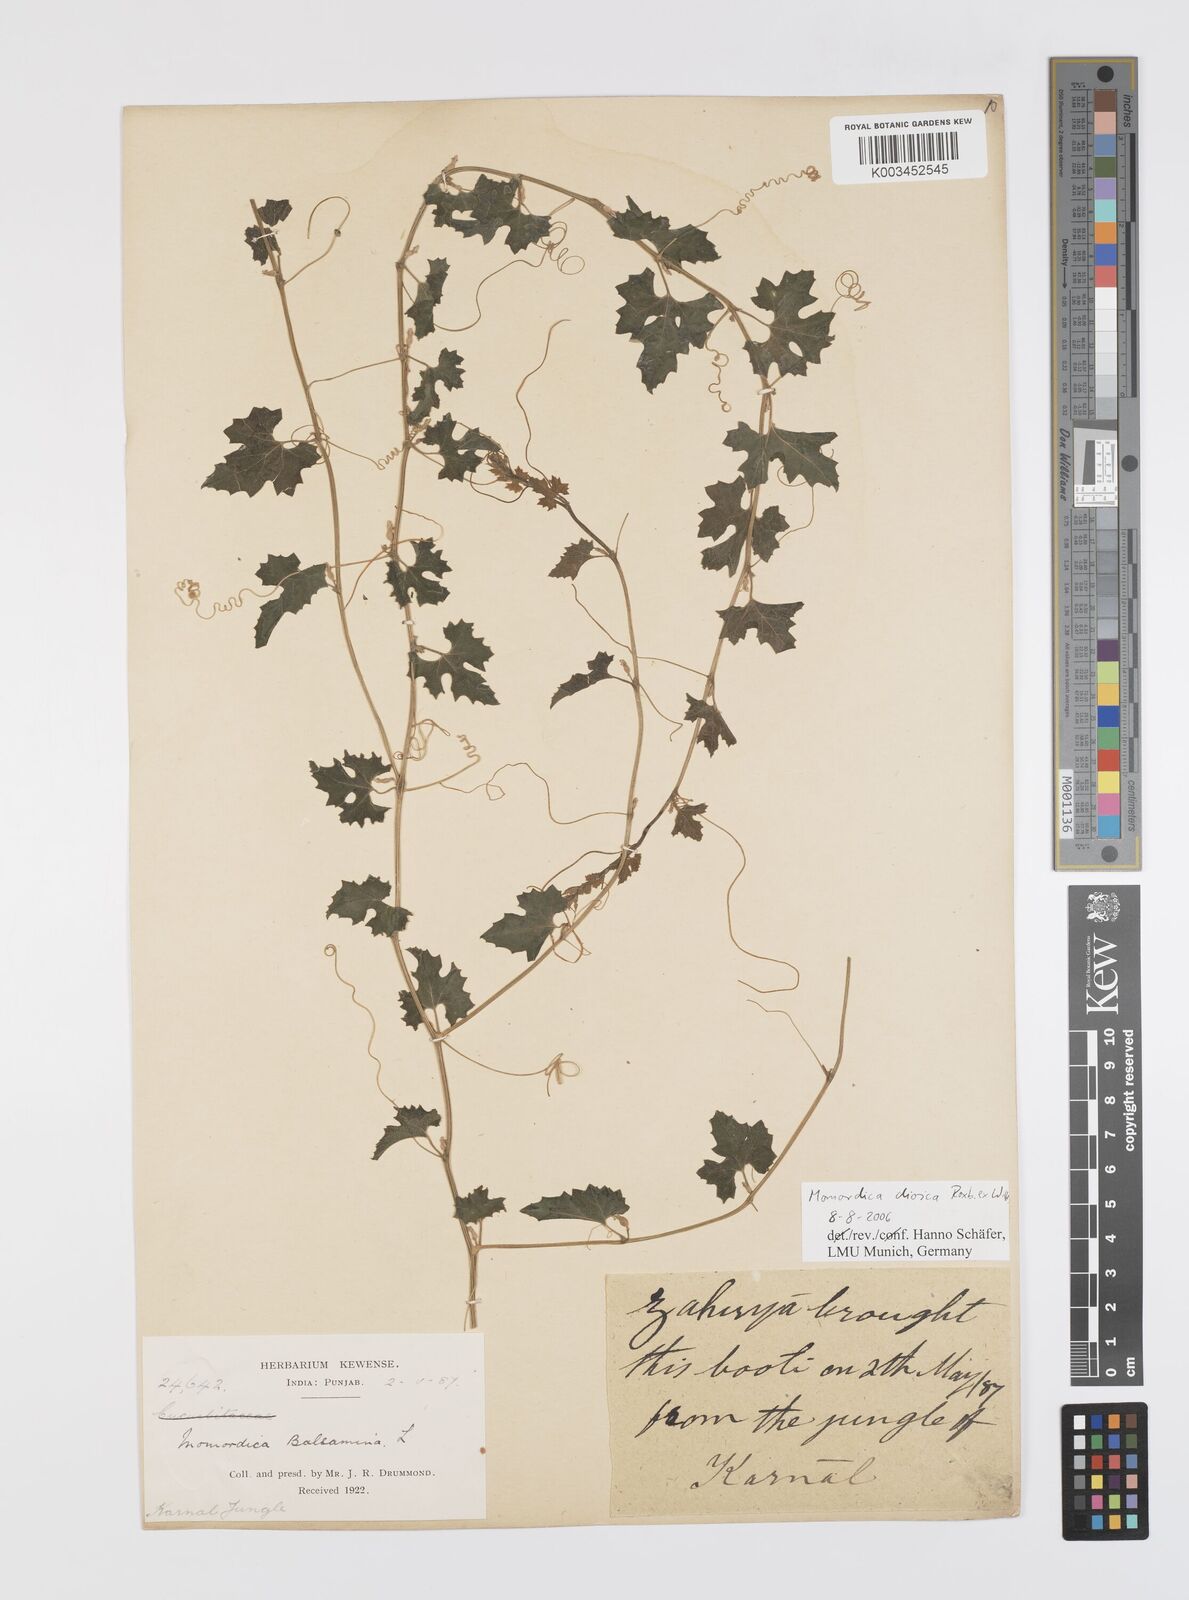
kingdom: Plantae
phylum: Tracheophyta
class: Magnoliopsida
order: Cucurbitales
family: Cucurbitaceae
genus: Momordica
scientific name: Momordica dioica
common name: Spine gourd
